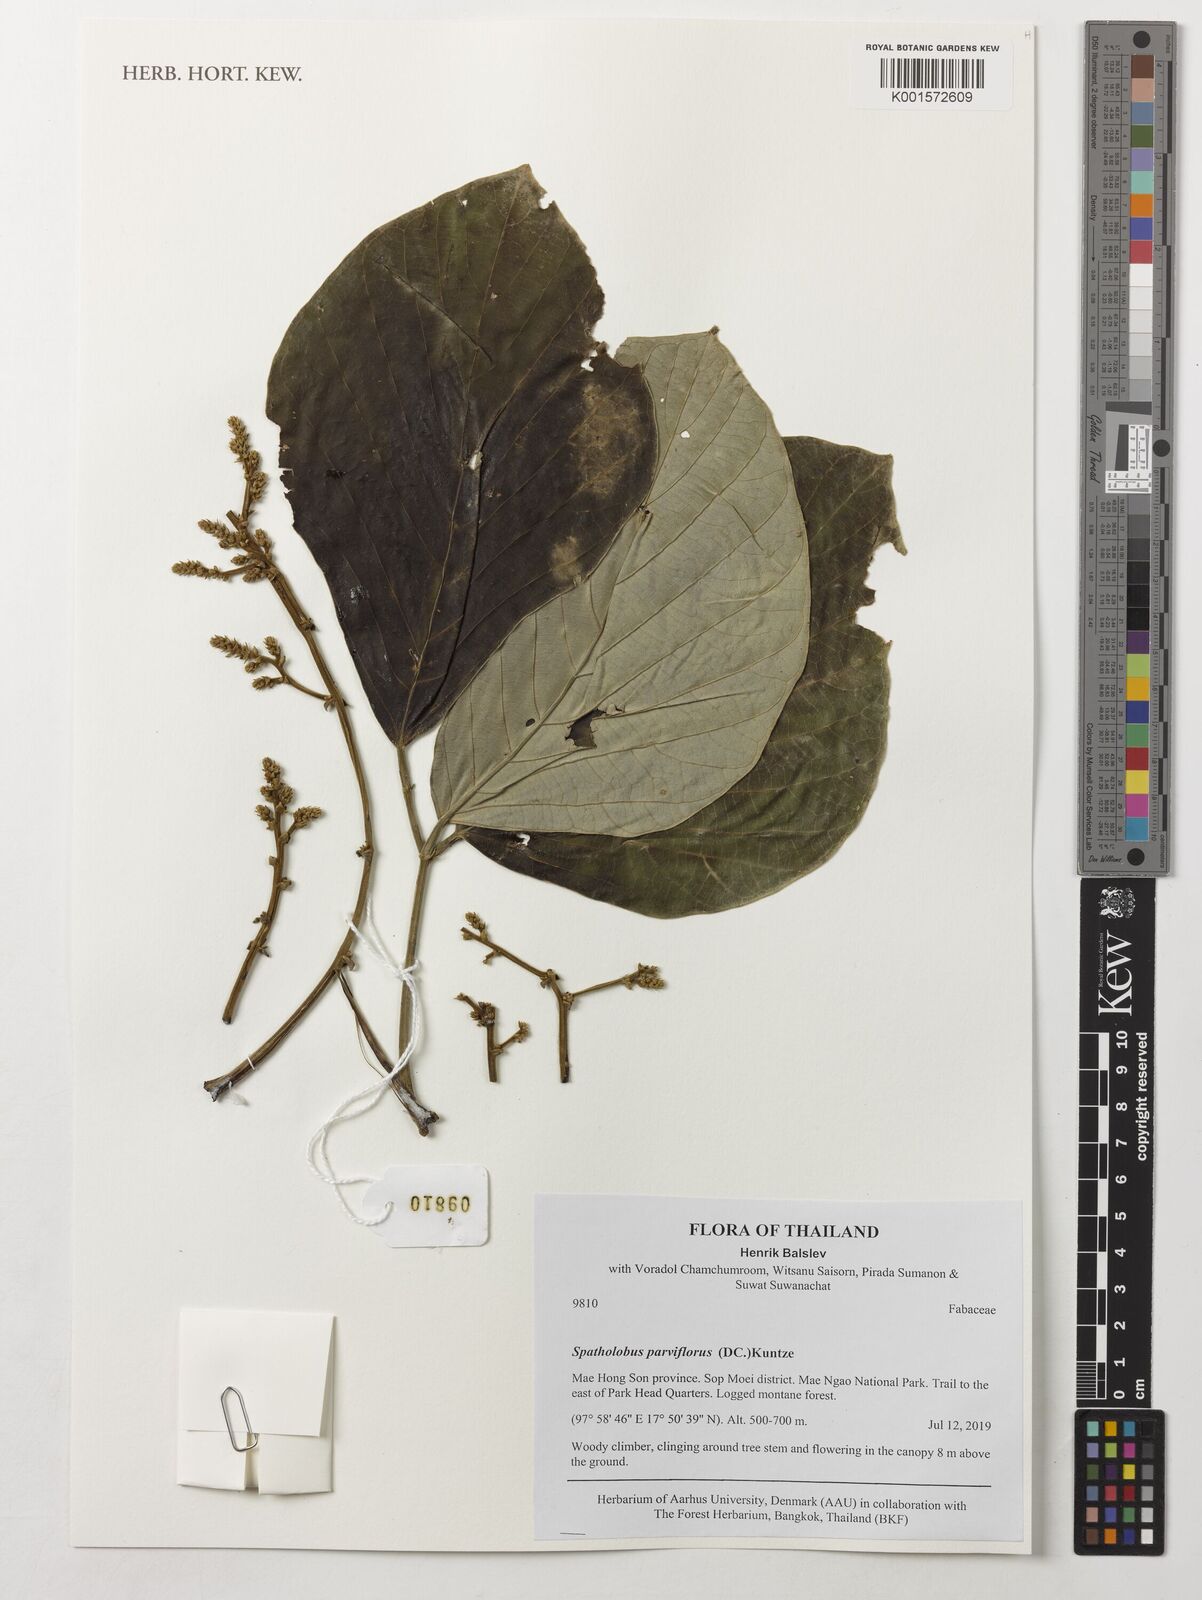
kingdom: Plantae
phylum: Tracheophyta
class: Magnoliopsida
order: Fabales
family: Fabaceae
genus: Spatholobus
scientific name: Spatholobus parviflorus
